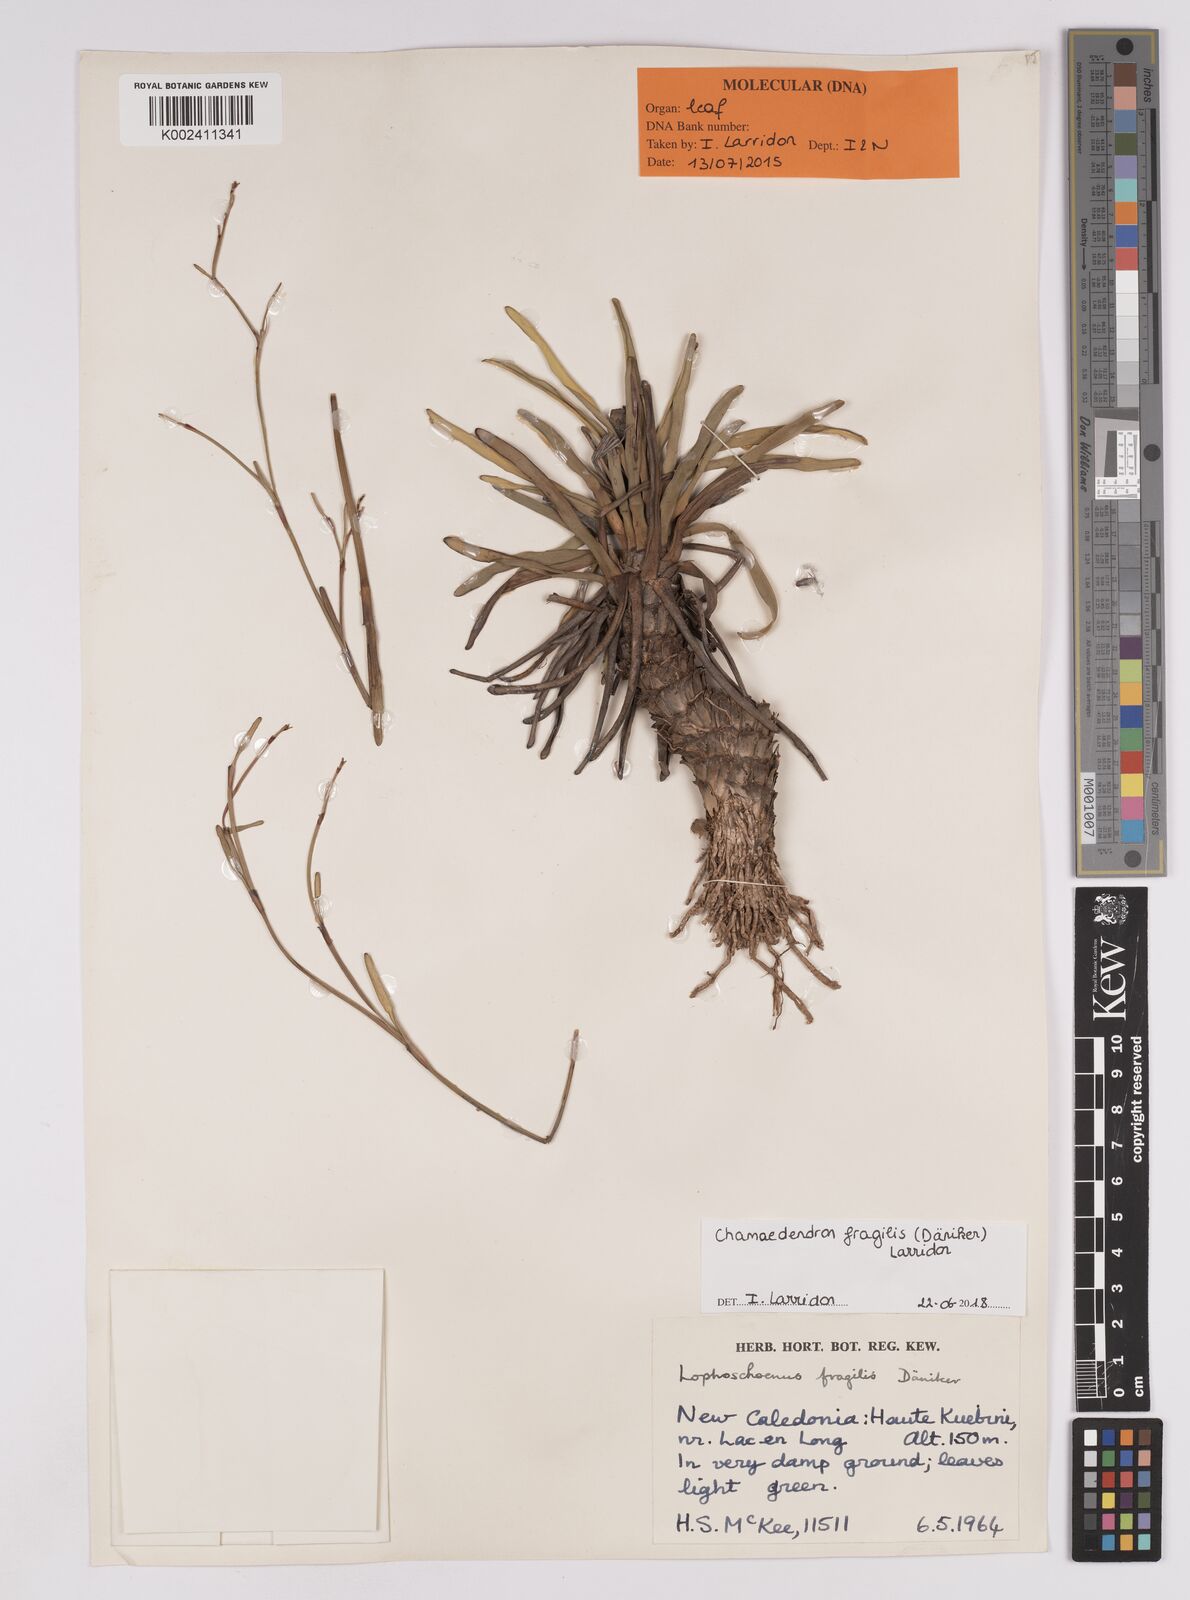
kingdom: Plantae
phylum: Tracheophyta
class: Liliopsida
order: Poales
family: Cyperaceae
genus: Chamaedendron
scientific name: Chamaedendron fragilis
